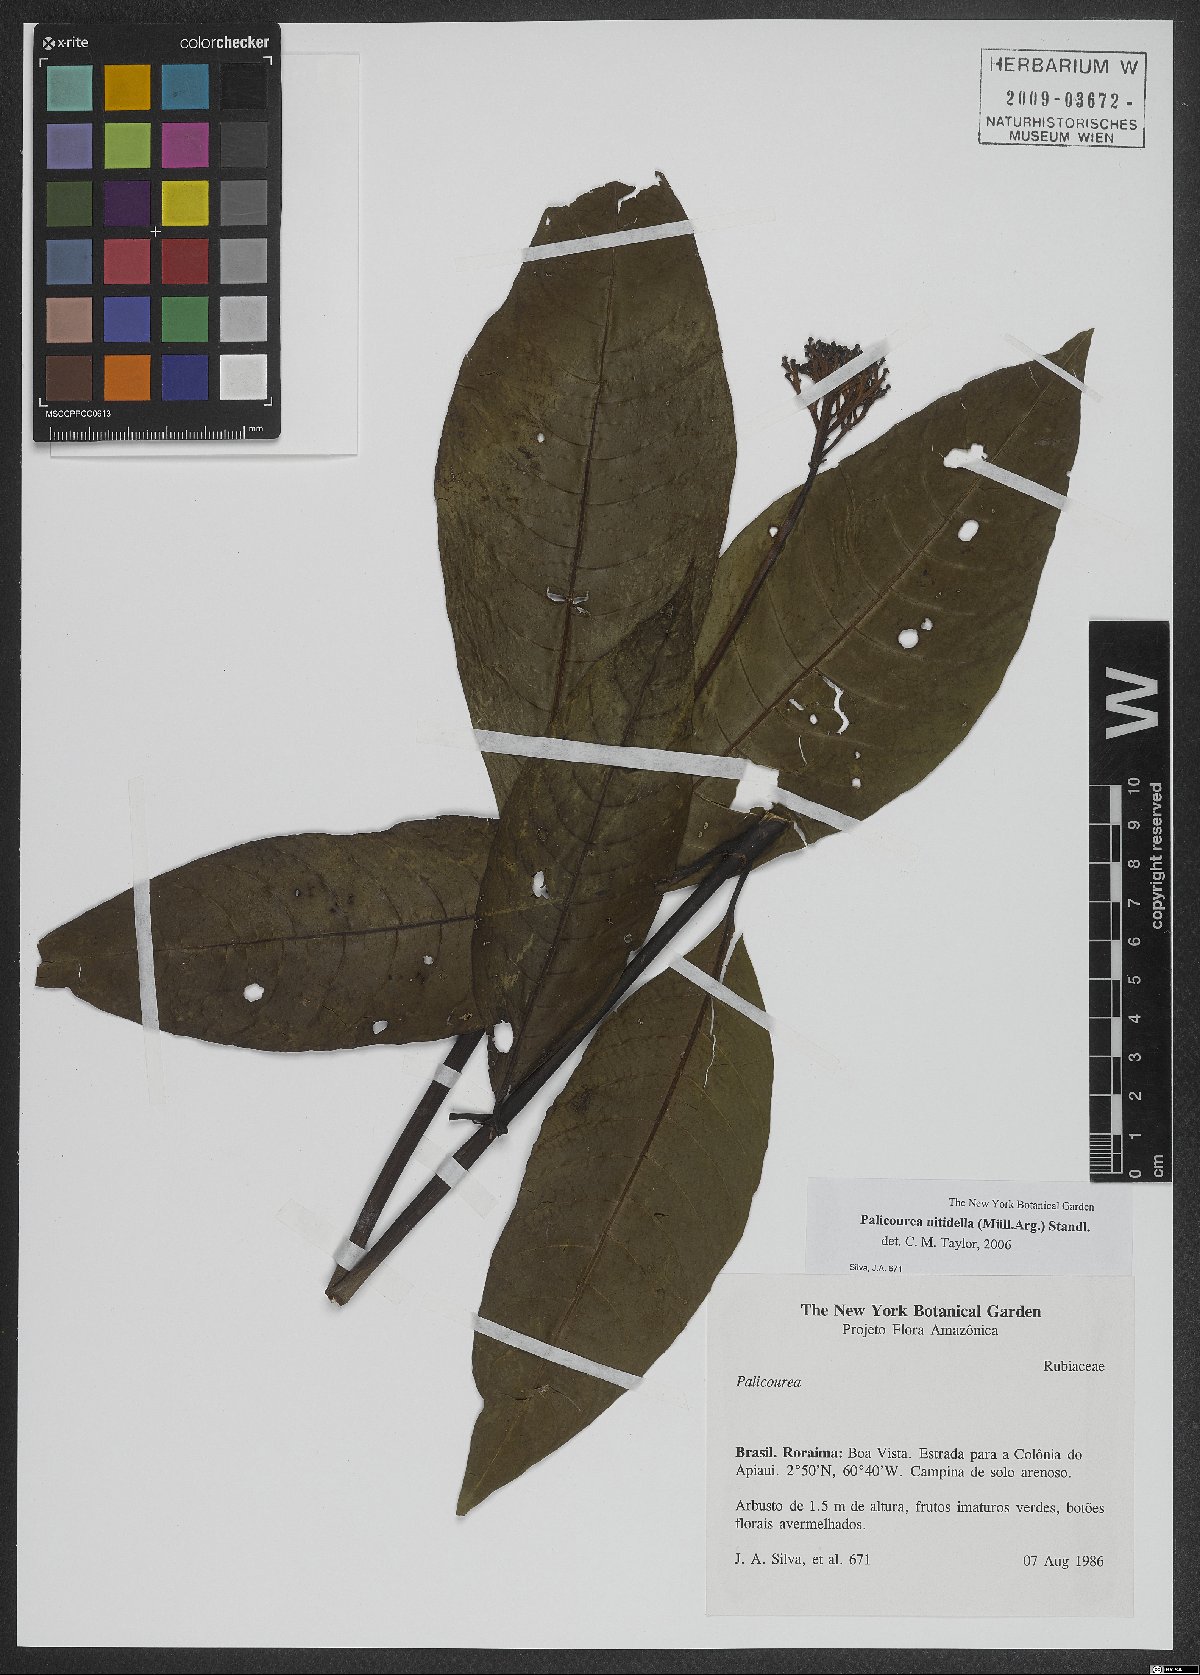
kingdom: Plantae
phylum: Tracheophyta
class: Magnoliopsida
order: Gentianales
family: Rubiaceae
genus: Palicourea
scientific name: Palicourea nitidella
